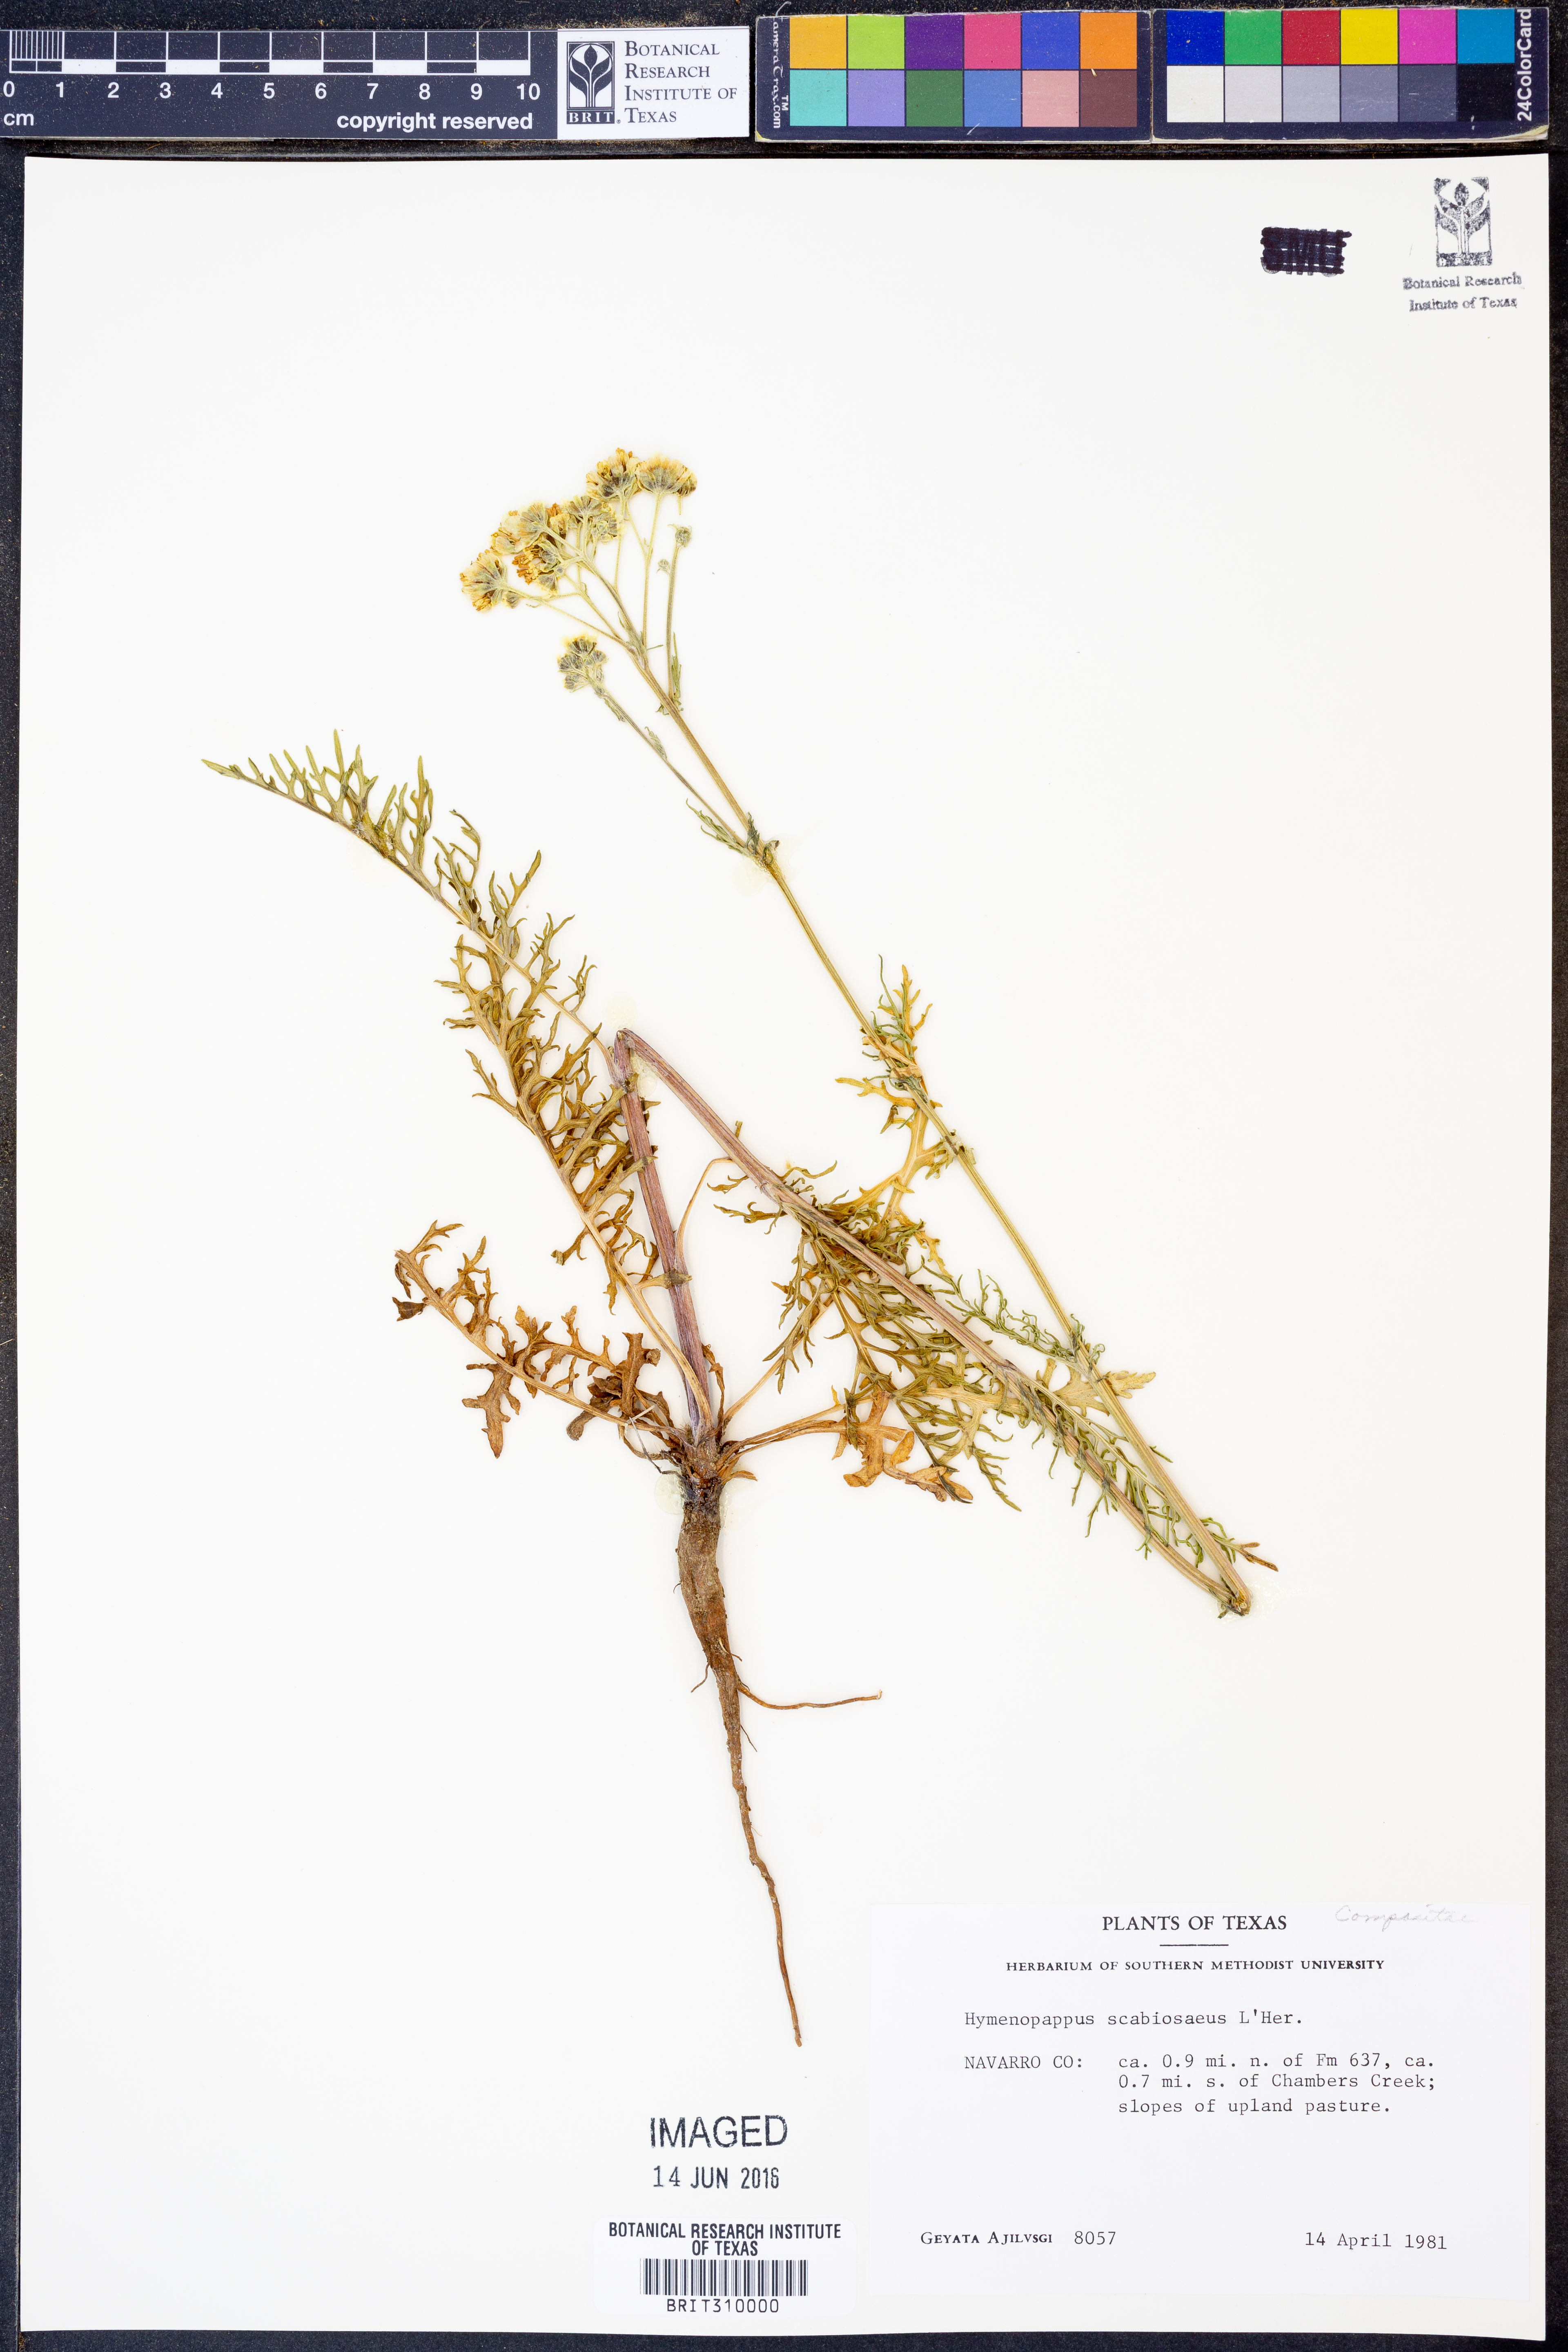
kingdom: Plantae
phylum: Tracheophyta
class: Magnoliopsida
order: Asterales
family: Asteraceae
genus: Hymenopappus
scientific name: Hymenopappus scabiosaeus
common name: Carolina woollywhite
